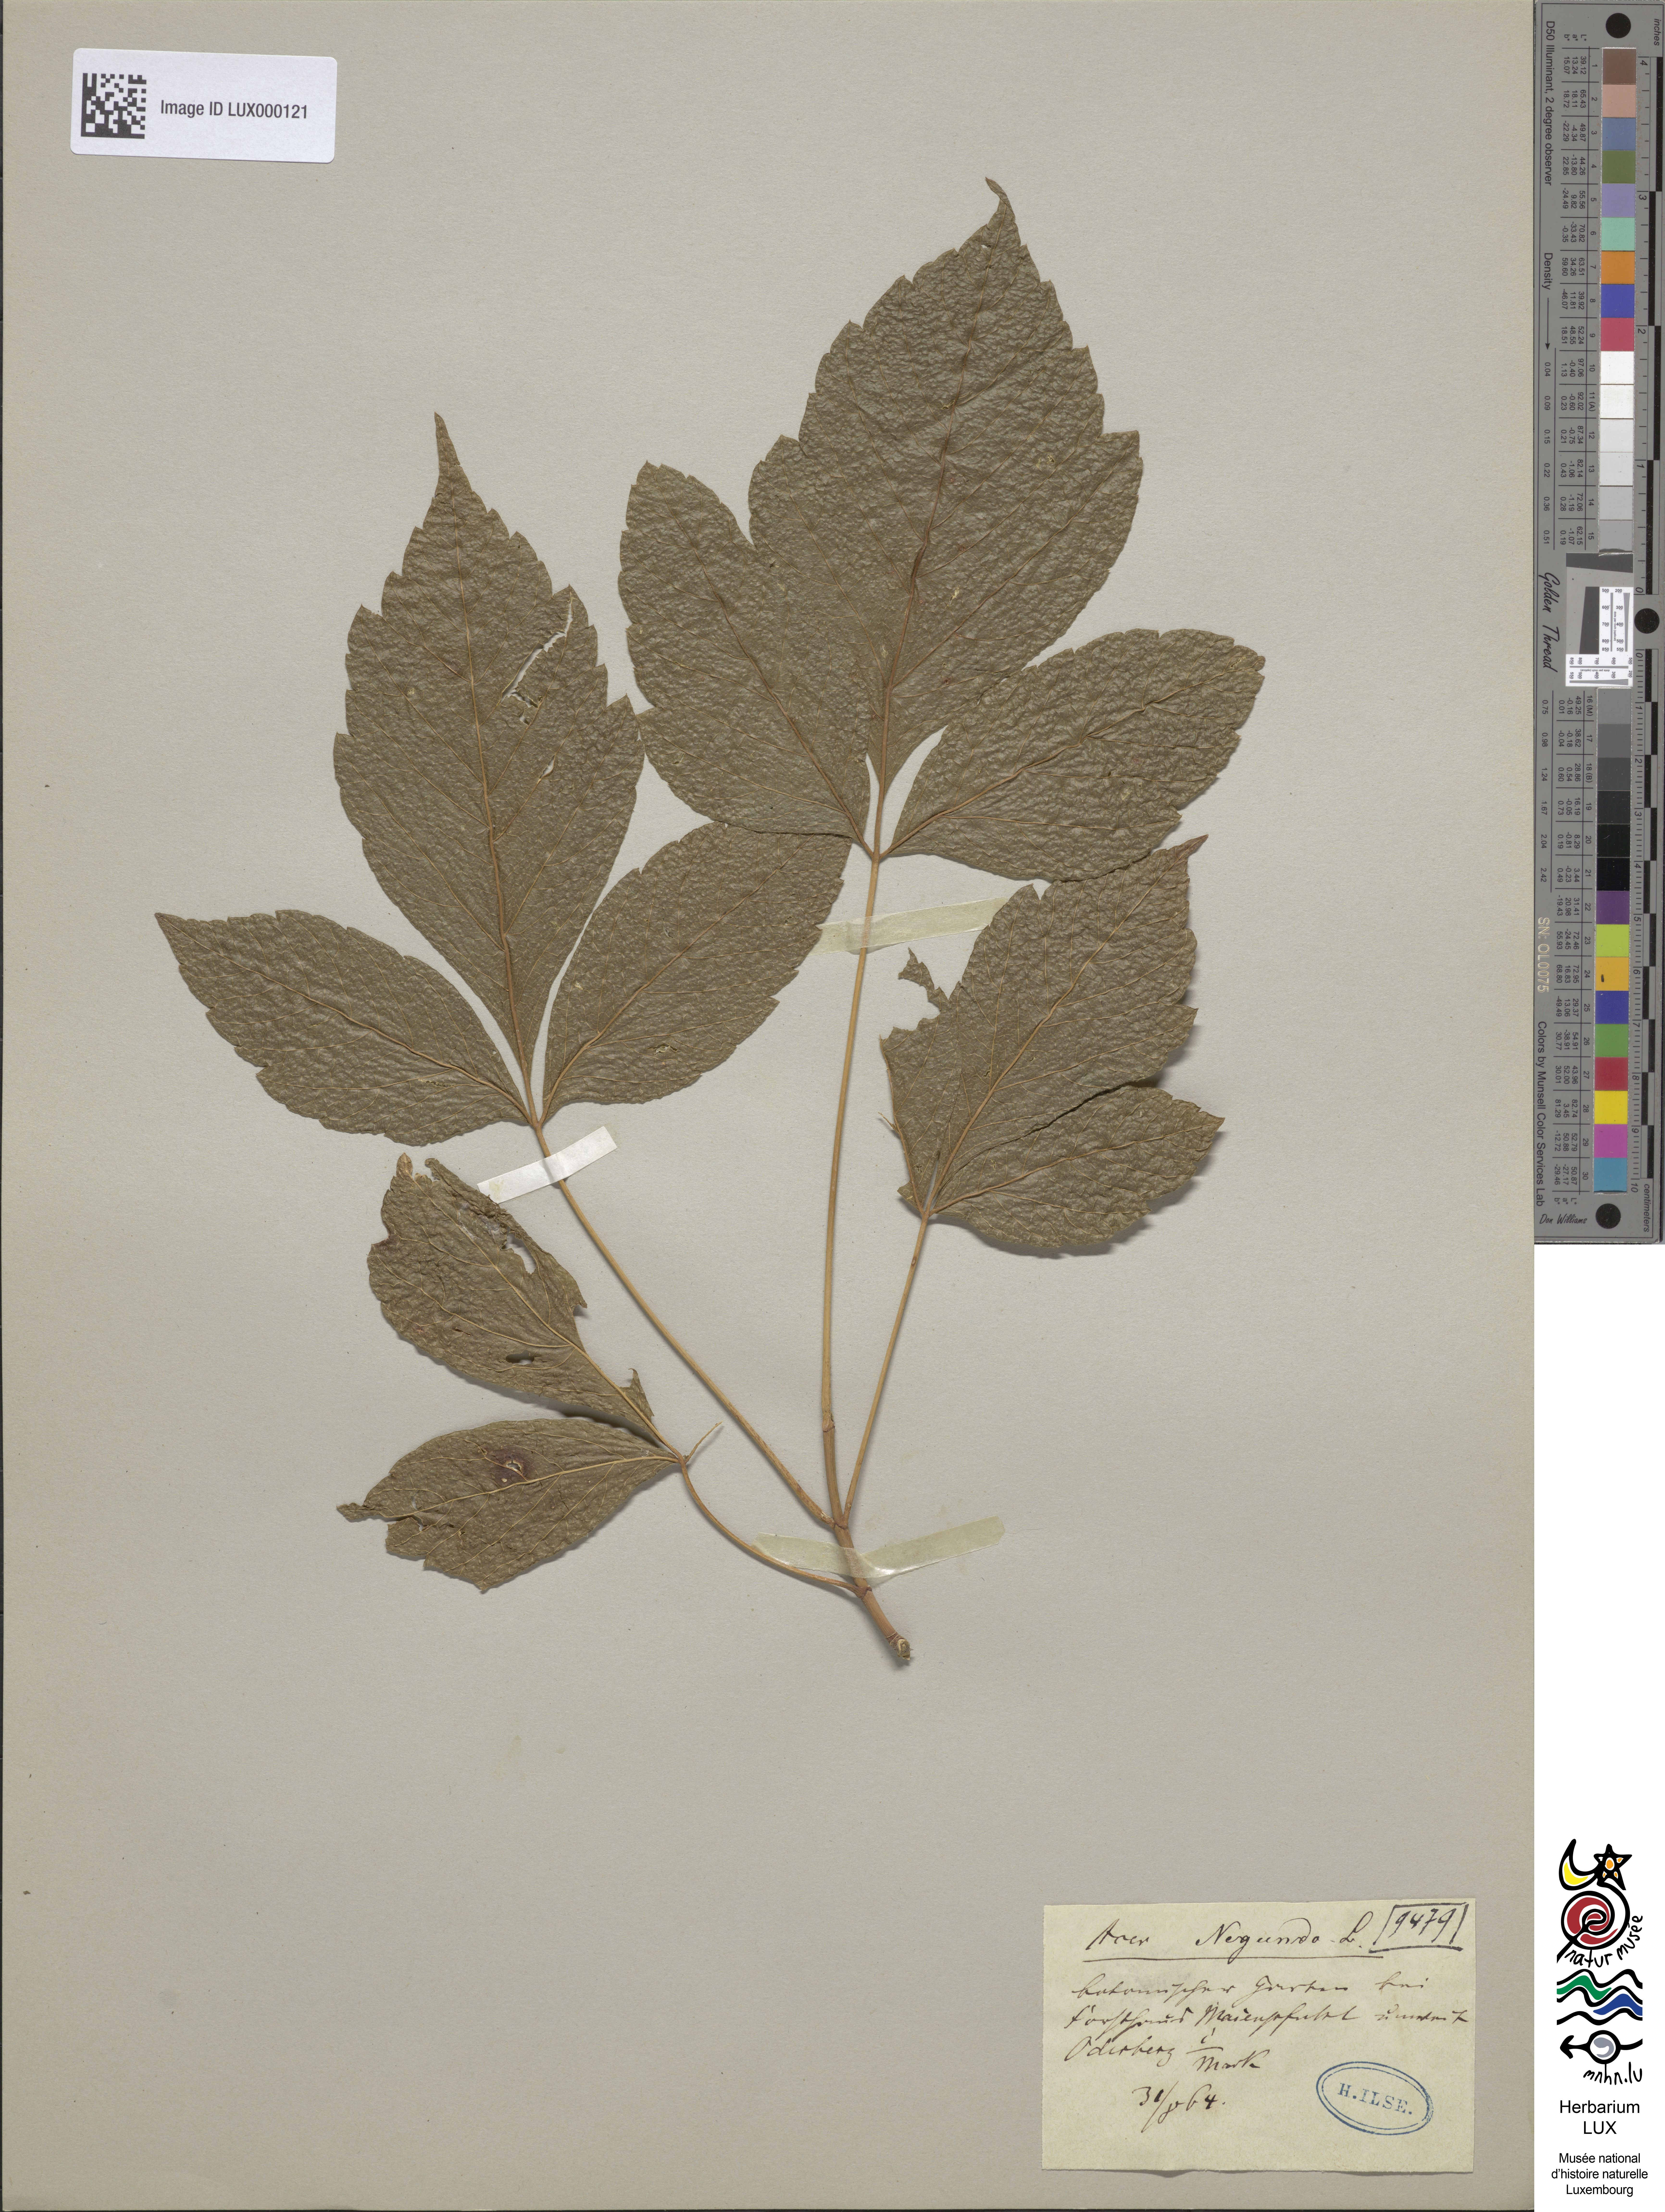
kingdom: Plantae
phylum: Tracheophyta
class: Magnoliopsida
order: Sapindales
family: Sapindaceae
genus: Acer
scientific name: Acer negundo
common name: Ashleaf maple
